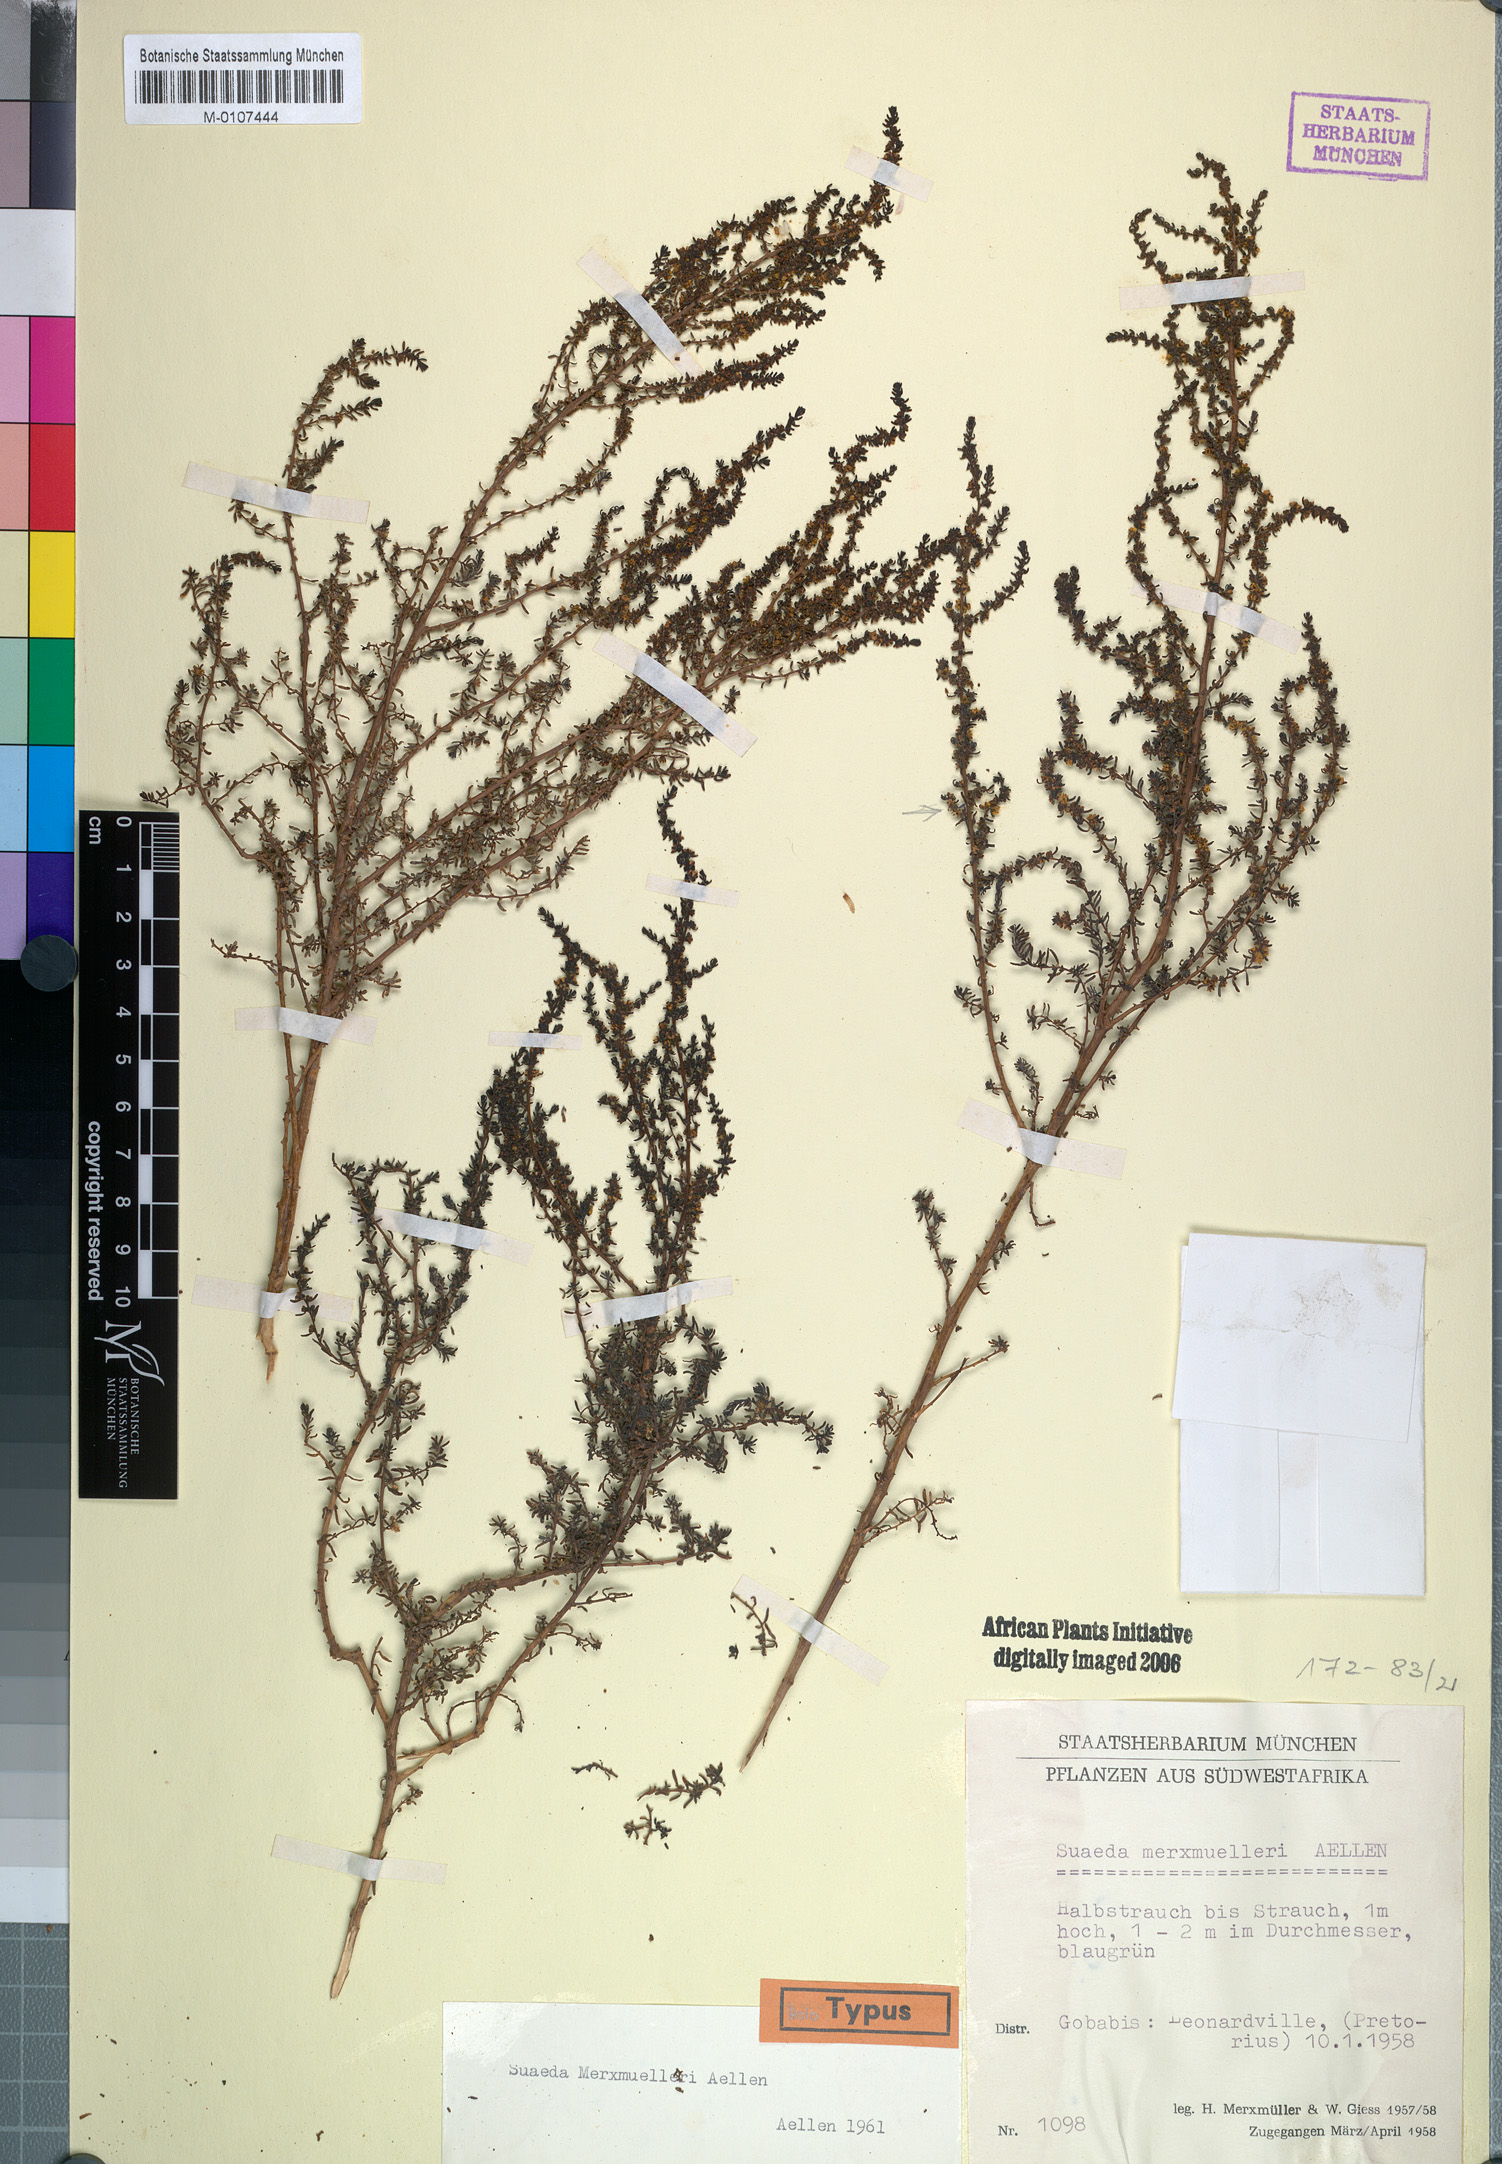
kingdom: Plantae
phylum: Tracheophyta
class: Magnoliopsida
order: Caryophyllales
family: Amaranthaceae
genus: Suaeda
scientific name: Suaeda merxmuelleri
